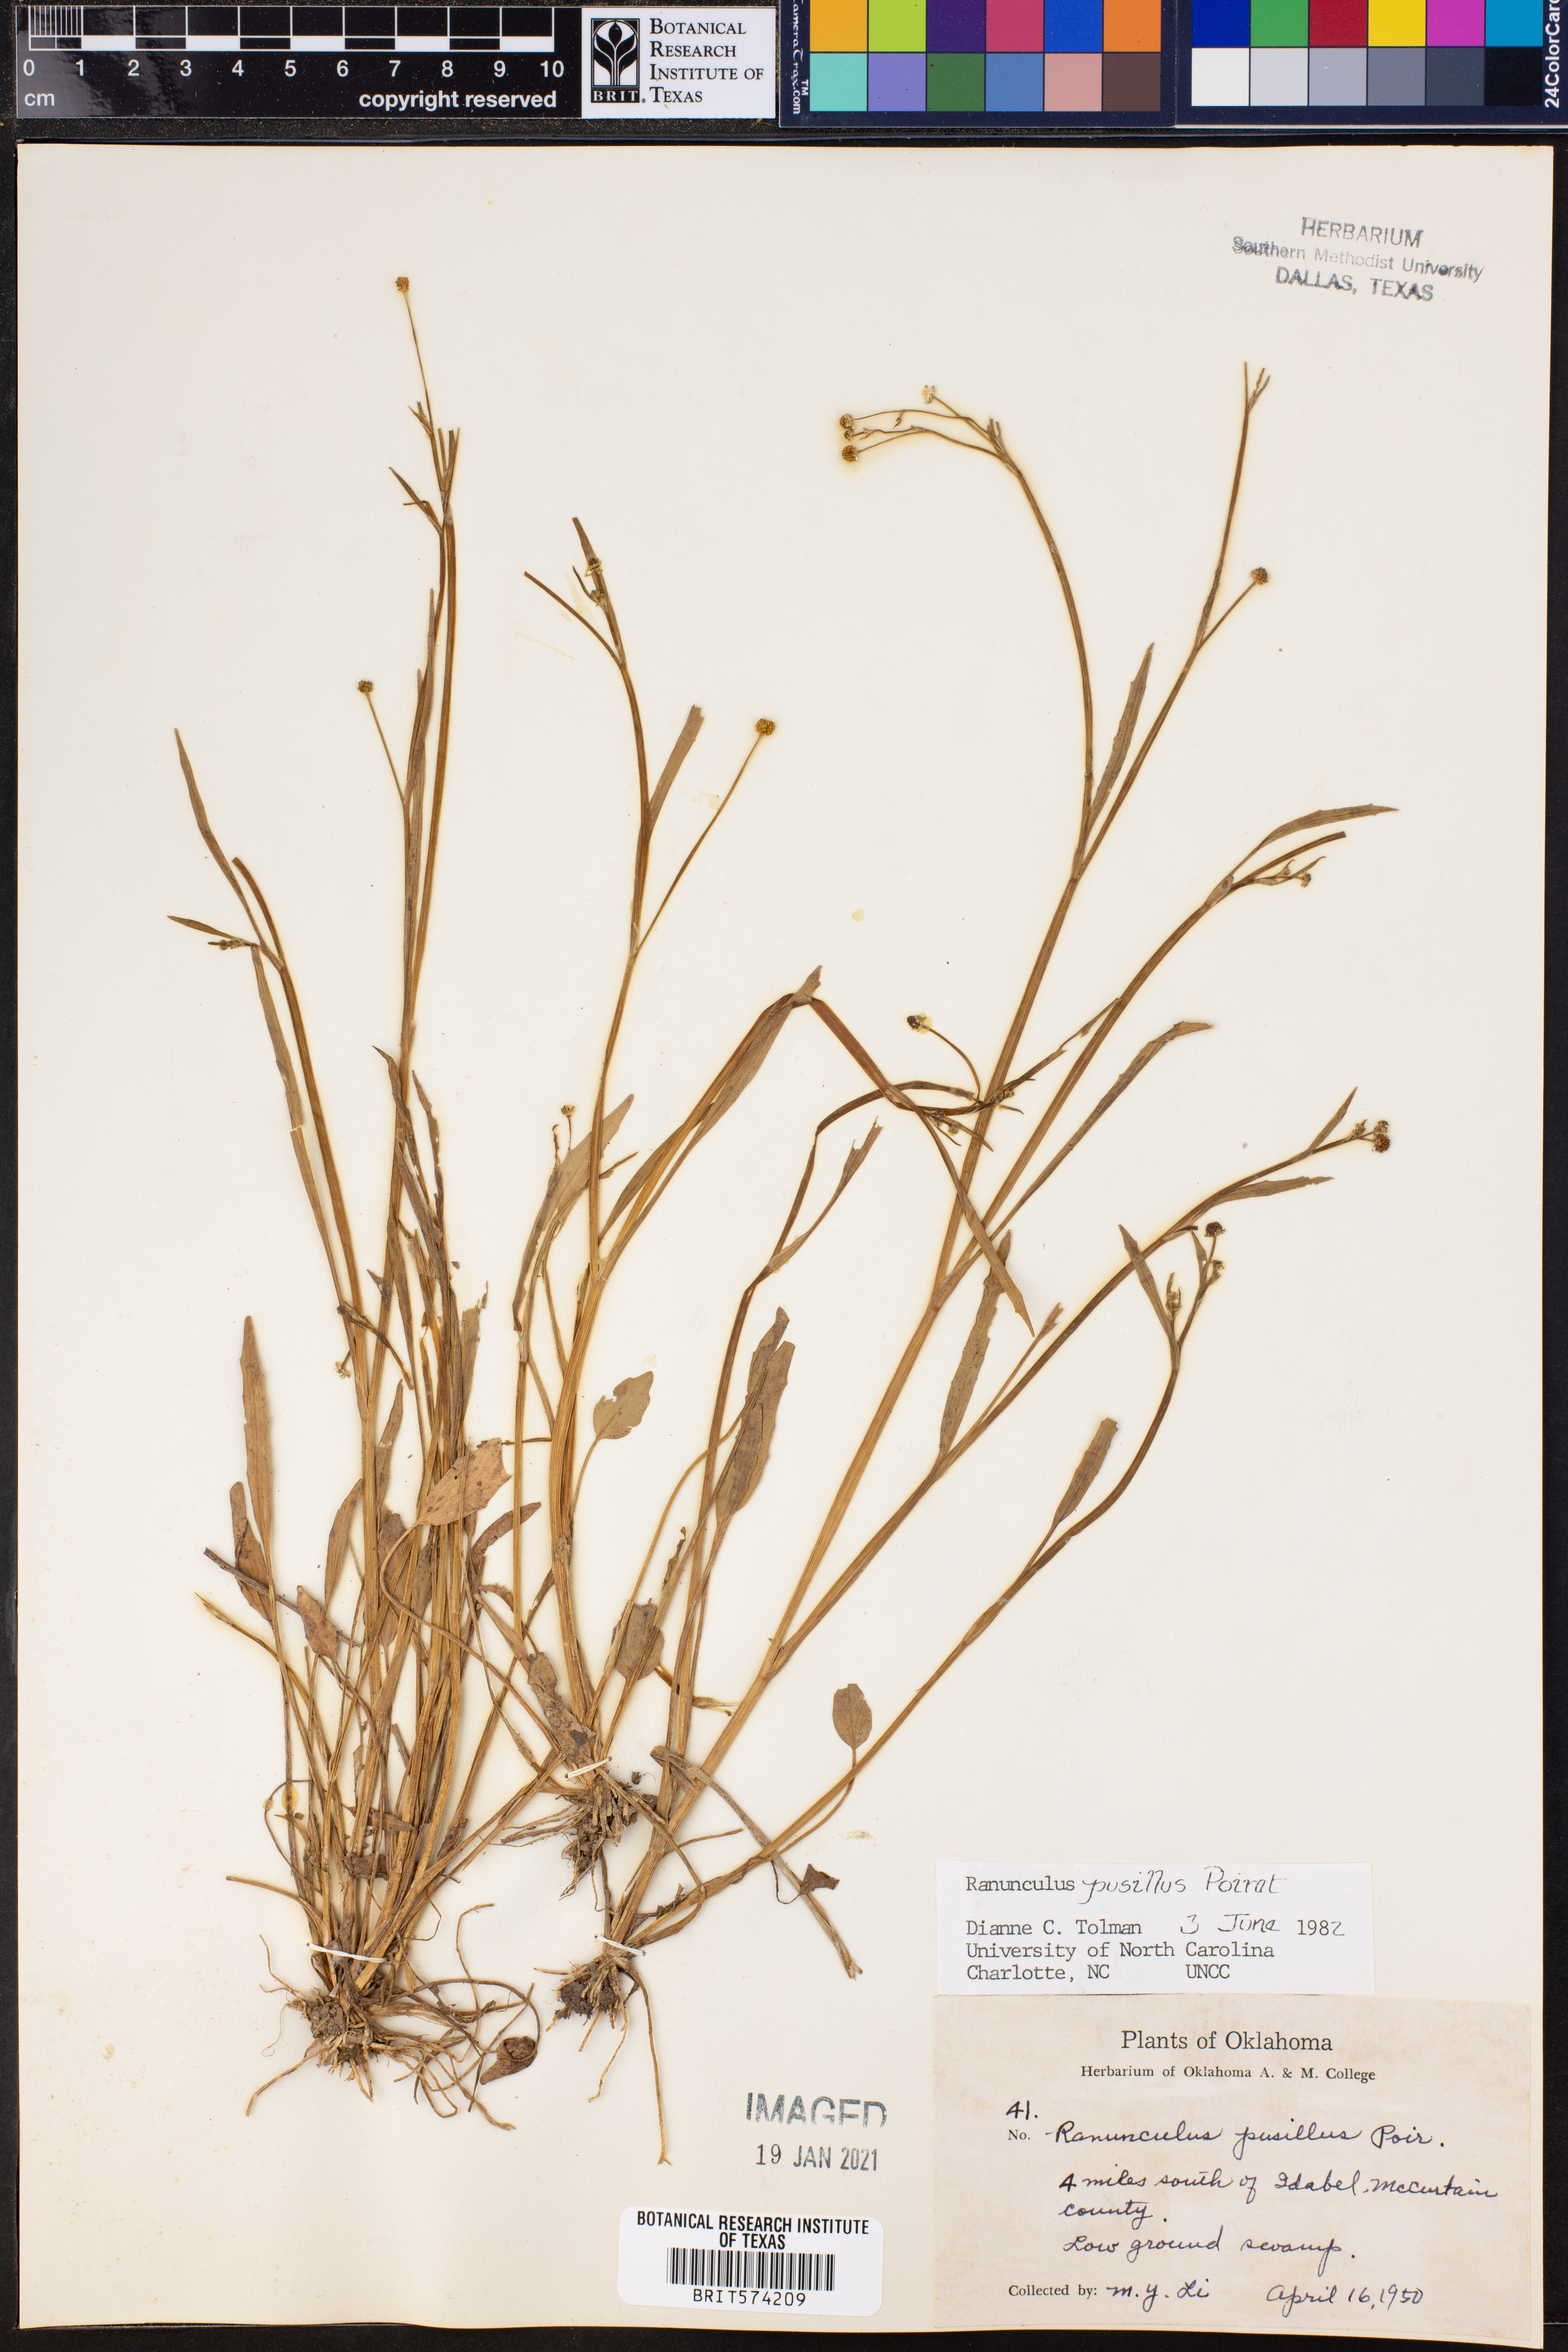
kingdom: Plantae
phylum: Tracheophyta
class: Magnoliopsida
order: Ranunculales
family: Ranunculaceae
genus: Ranunculus
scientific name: Ranunculus pusillus
